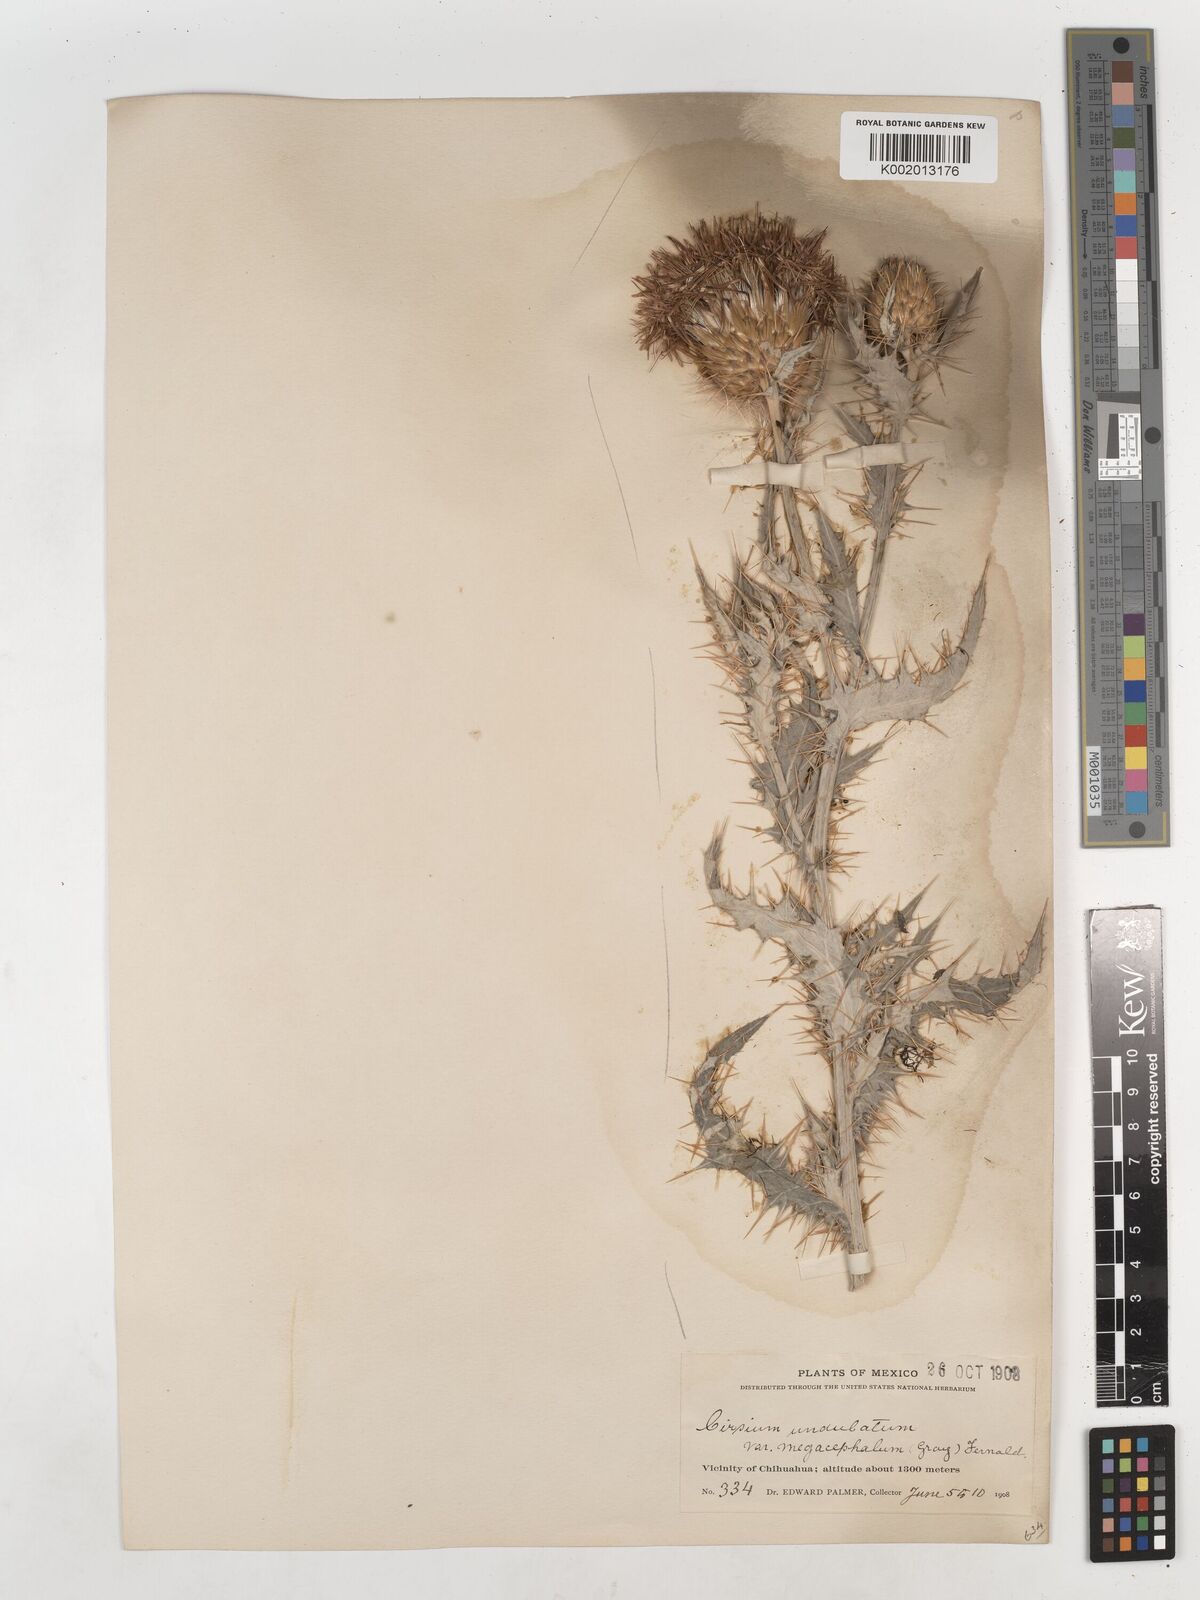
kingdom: Plantae
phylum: Tracheophyta
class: Magnoliopsida
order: Asterales
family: Asteraceae
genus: Cirsium
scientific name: Cirsium undulatum
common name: Pasture thistle
